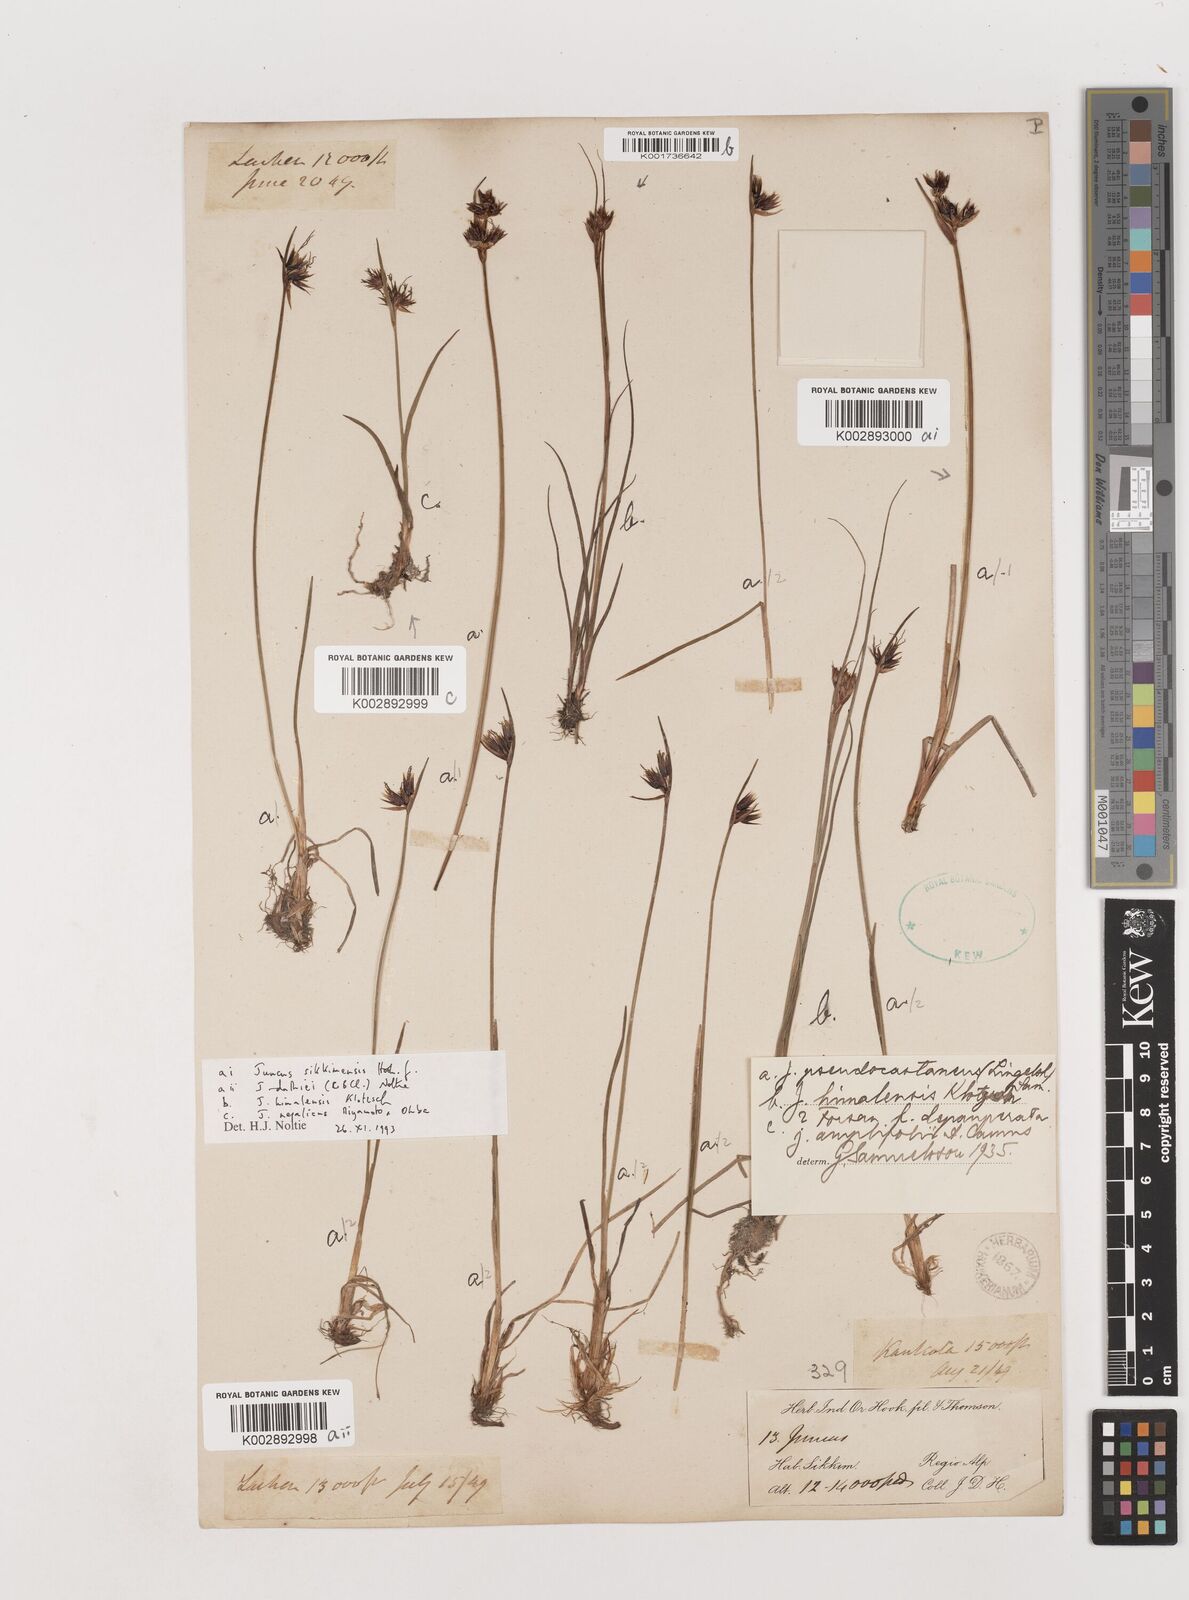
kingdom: Plantae
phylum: Tracheophyta
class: Liliopsida
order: Poales
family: Juncaceae
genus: Juncus
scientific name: Juncus
